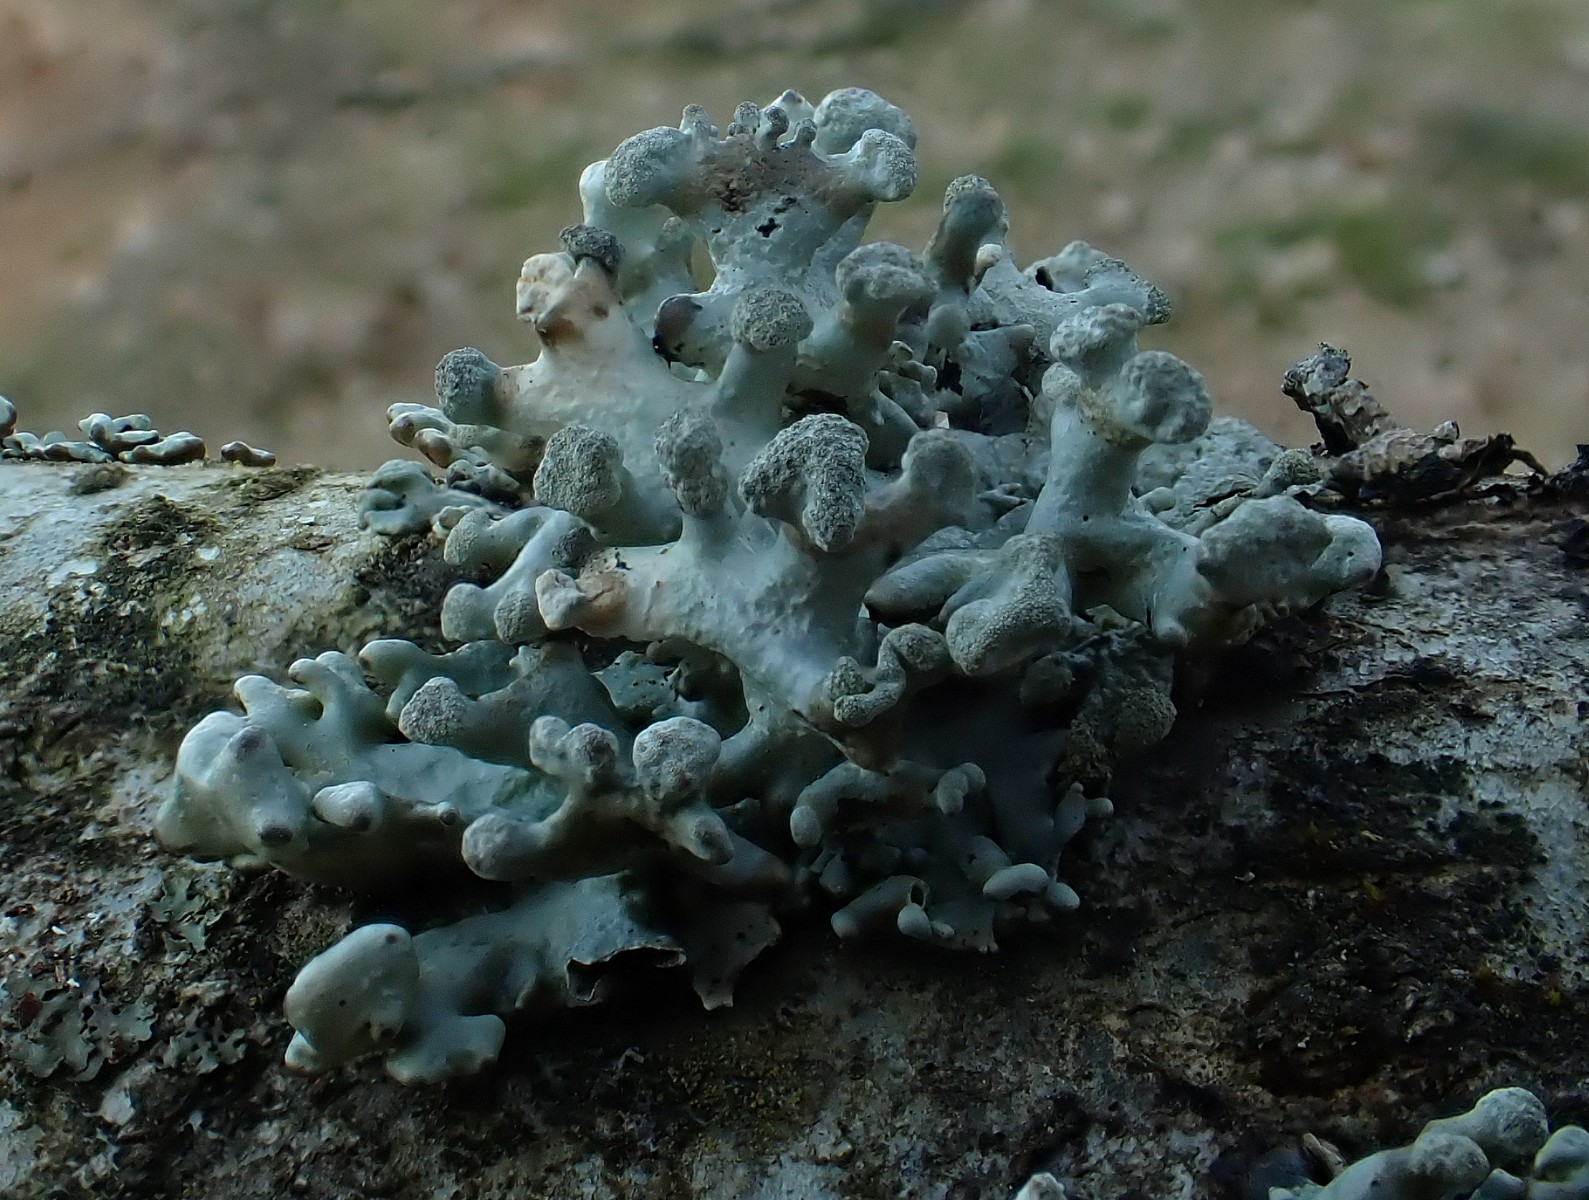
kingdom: Fungi
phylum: Ascomycota
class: Lecanoromycetes
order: Lecanorales
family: Parmeliaceae
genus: Hypogymnia
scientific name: Hypogymnia tubulosa
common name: finger-kvistlav
